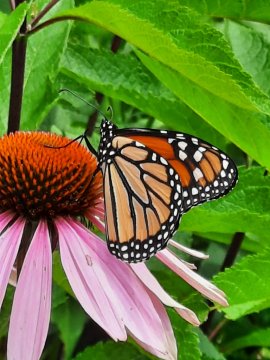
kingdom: Animalia
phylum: Arthropoda
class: Insecta
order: Lepidoptera
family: Nymphalidae
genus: Danaus
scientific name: Danaus plexippus
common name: Monarch
